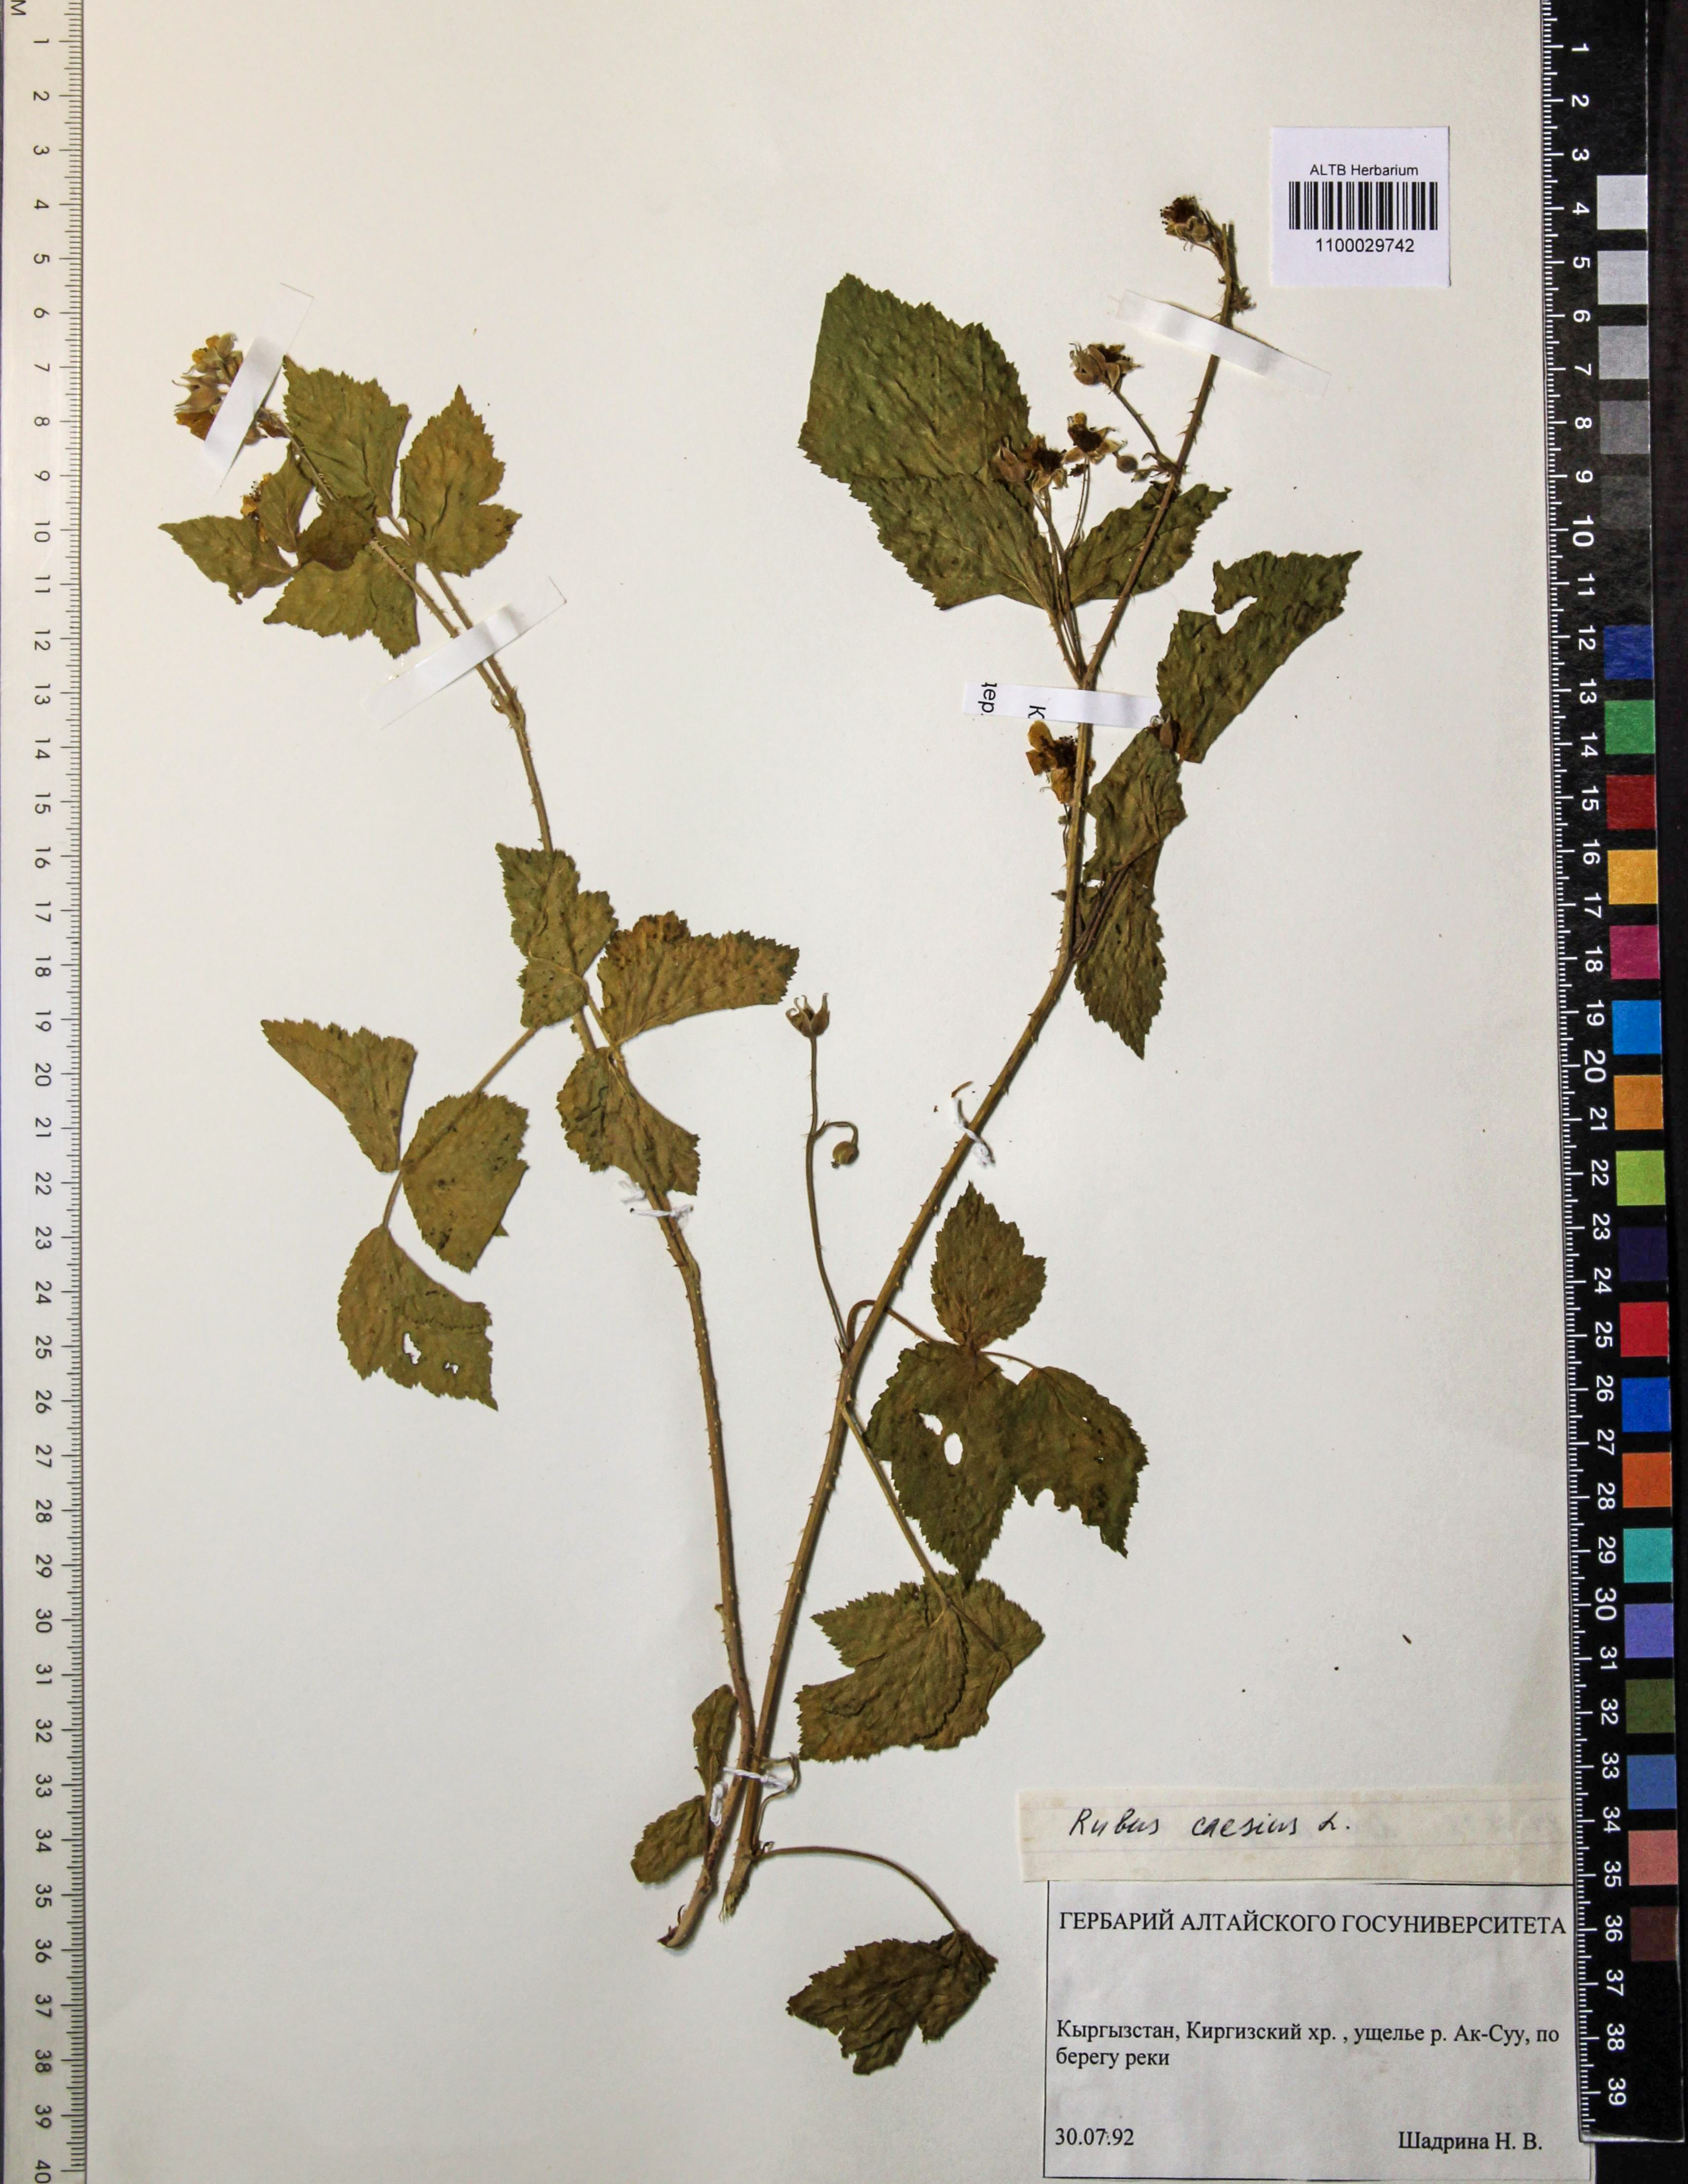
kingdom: Plantae
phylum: Tracheophyta
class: Magnoliopsida
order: Rosales
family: Rosaceae
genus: Rubus
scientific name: Rubus caesius
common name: Dewberry
